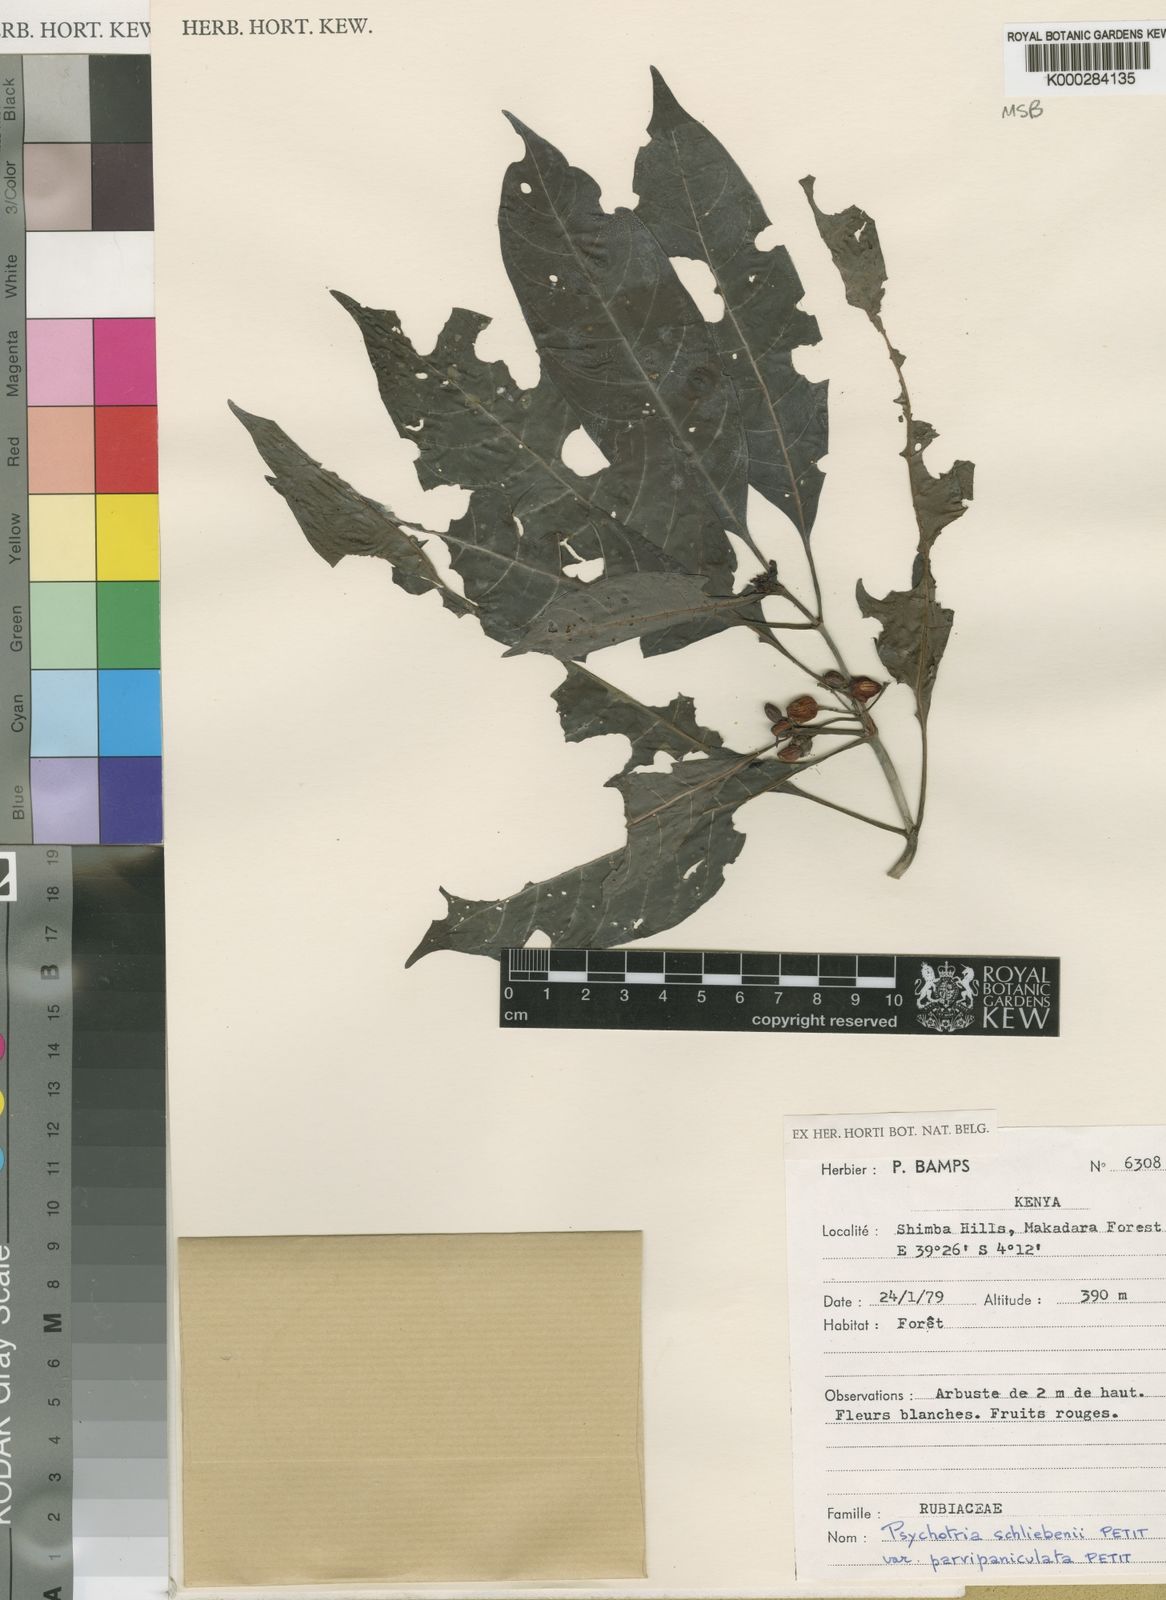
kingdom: Plantae
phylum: Tracheophyta
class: Magnoliopsida
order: Gentianales
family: Rubiaceae
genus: Psychotria
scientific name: Psychotria schliebenii
